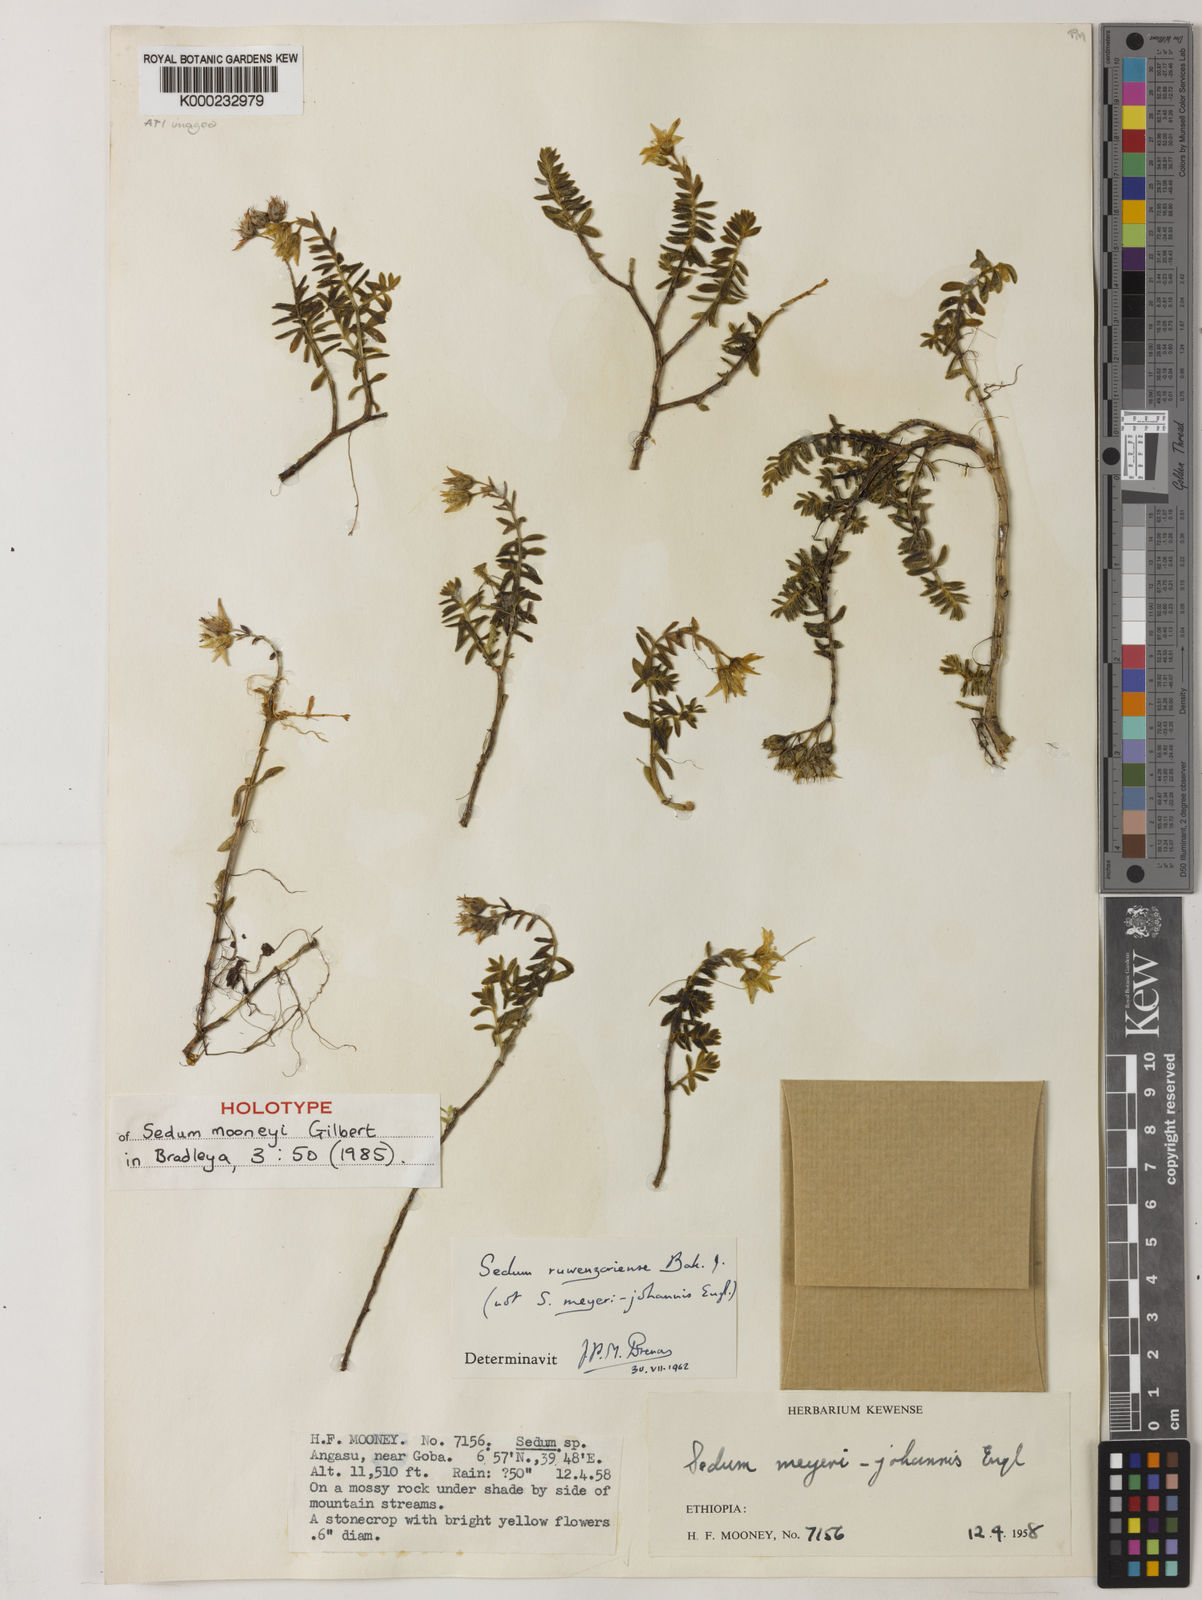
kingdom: Plantae
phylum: Tracheophyta
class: Magnoliopsida
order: Saxifragales
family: Crassulaceae
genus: Sedum
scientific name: Sedum mooneyi
